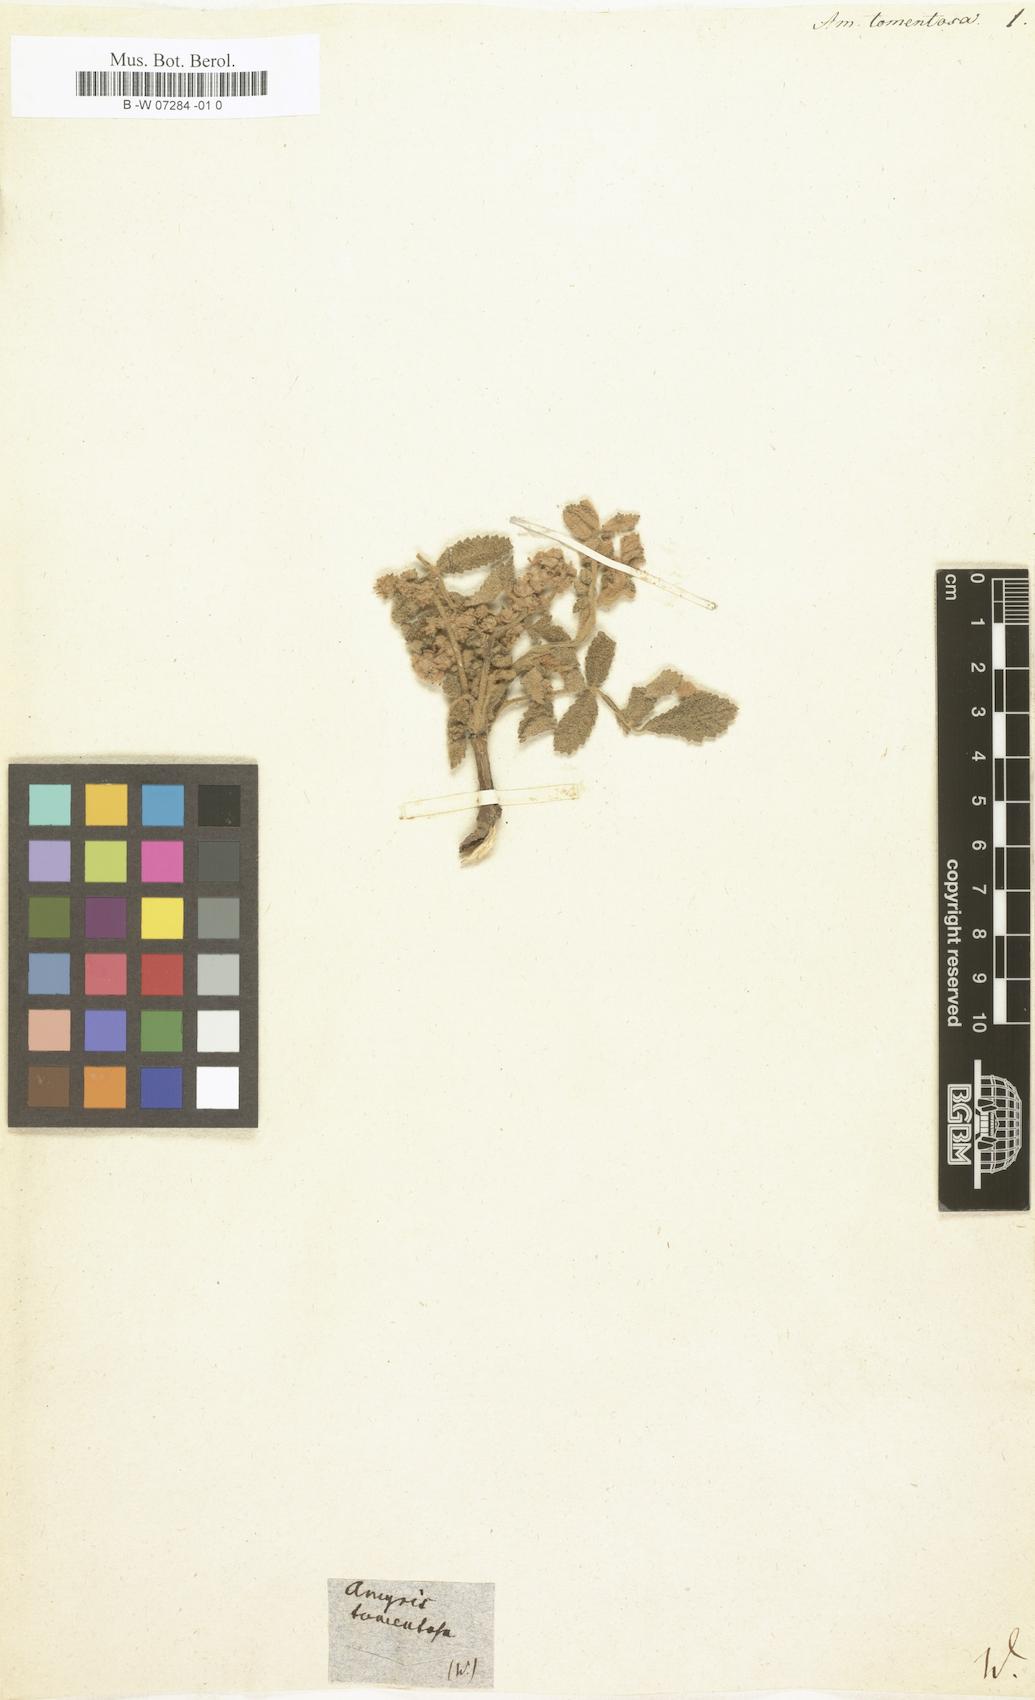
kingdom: Plantae
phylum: Tracheophyta
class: Magnoliopsida
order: Sapindales
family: Burseraceae
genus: Bursera
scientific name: Bursera tomentosa
